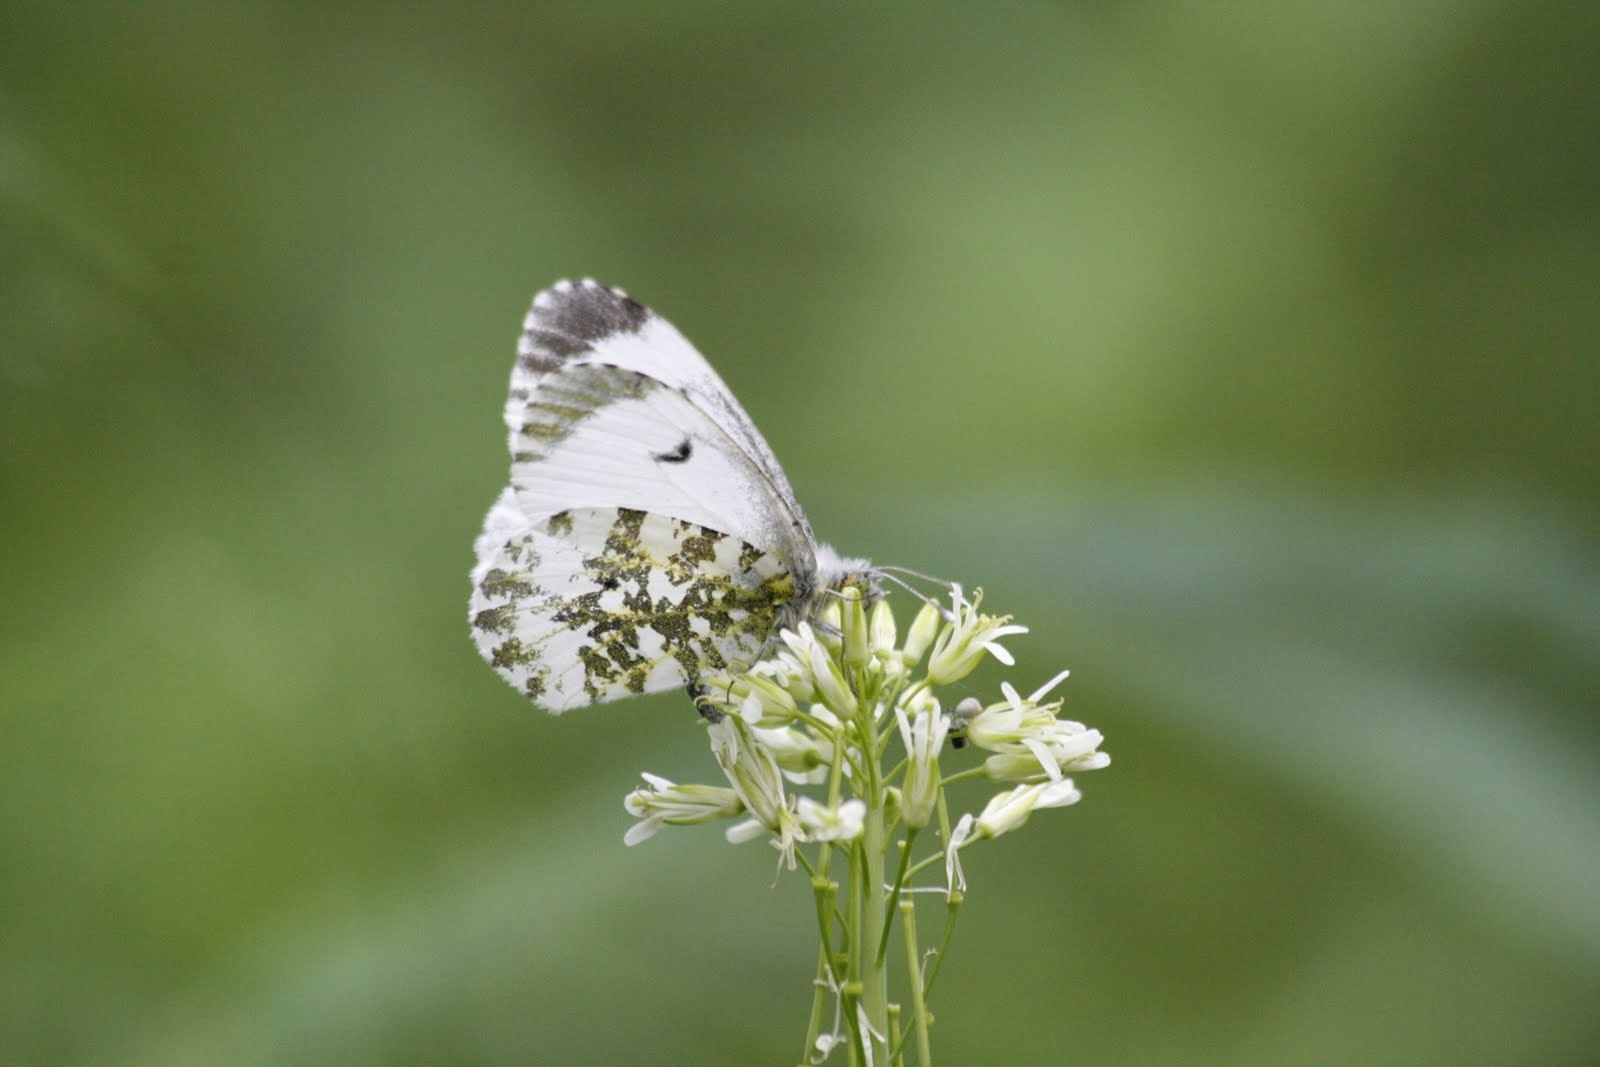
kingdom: Animalia
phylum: Arthropoda
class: Insecta
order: Lepidoptera
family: Pieridae
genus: Anthocharis
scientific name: Anthocharis cardamines
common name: Orange-tip
